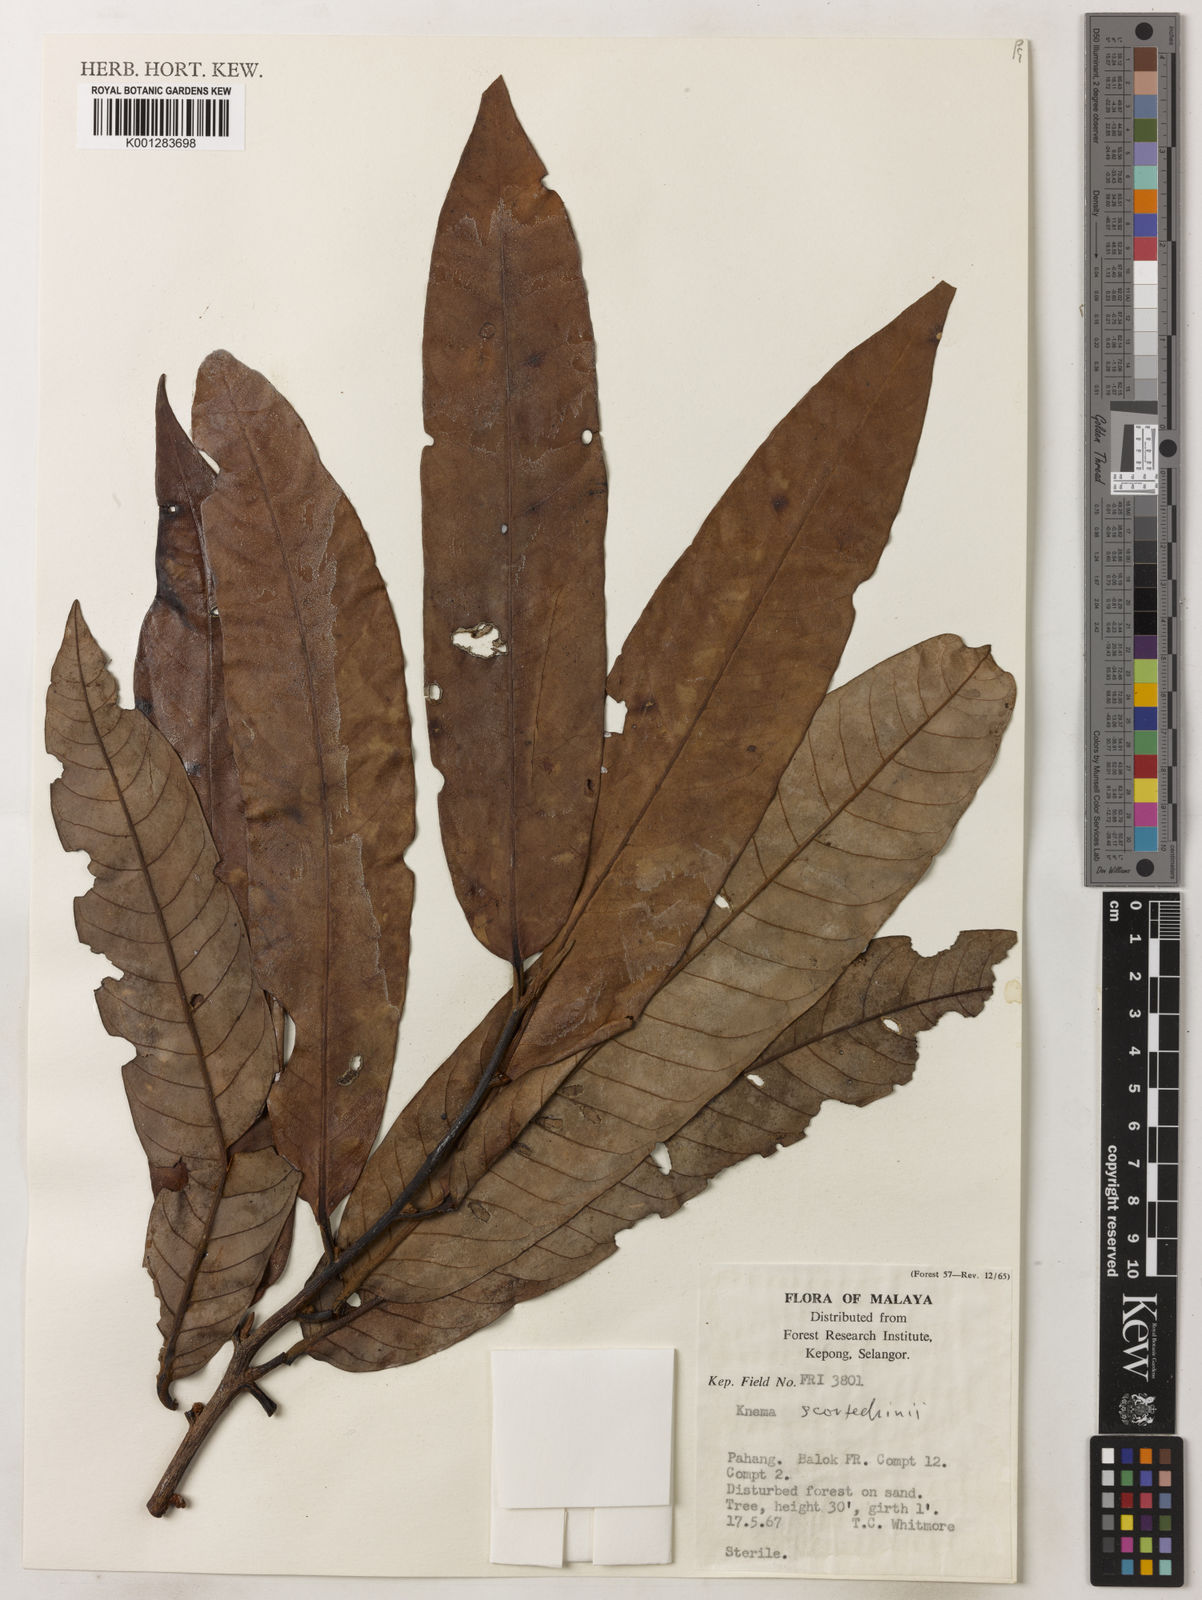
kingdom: Plantae
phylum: Tracheophyta
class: Magnoliopsida
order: Magnoliales
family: Myristicaceae
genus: Knema
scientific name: Knema scortechinii
